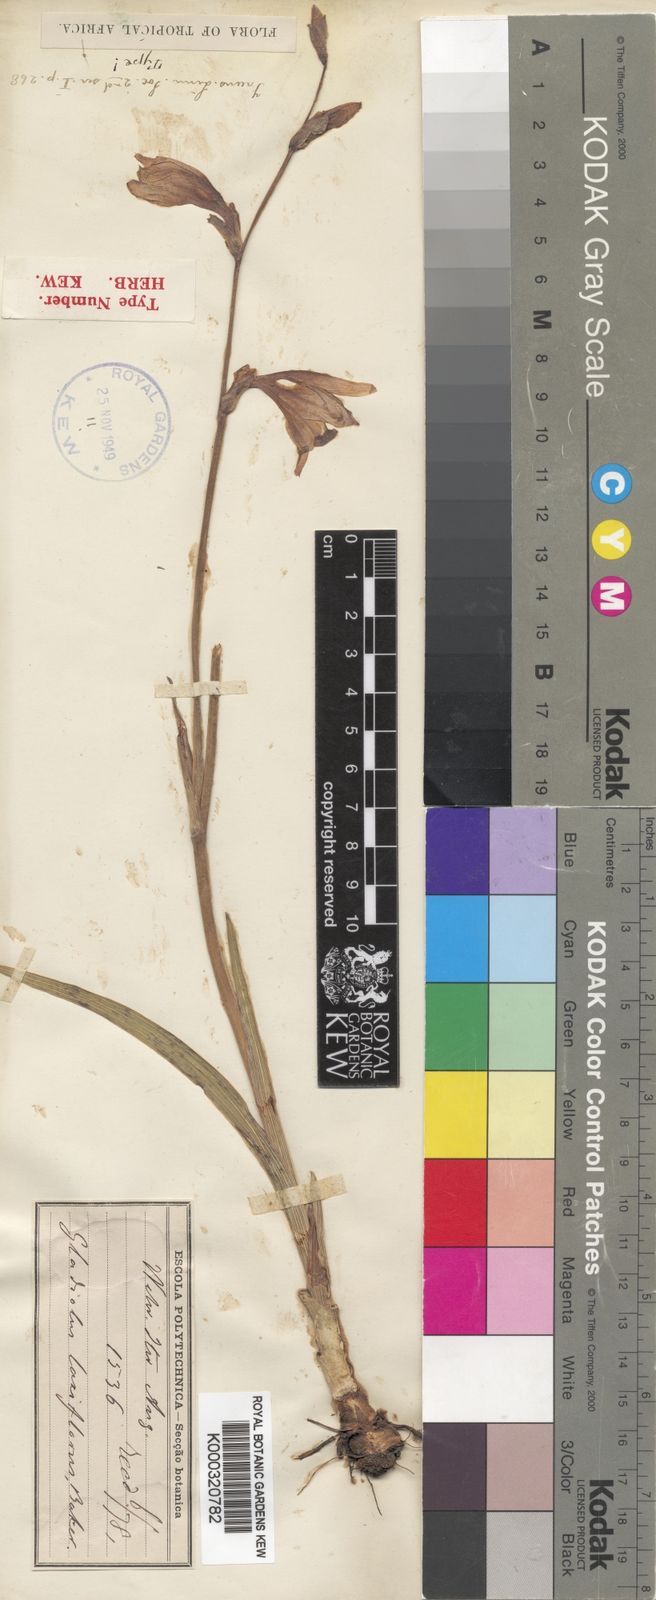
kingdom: Plantae
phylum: Tracheophyta
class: Liliopsida
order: Asparagales
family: Iridaceae
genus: Gladiolus
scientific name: Gladiolus laxiflorus
